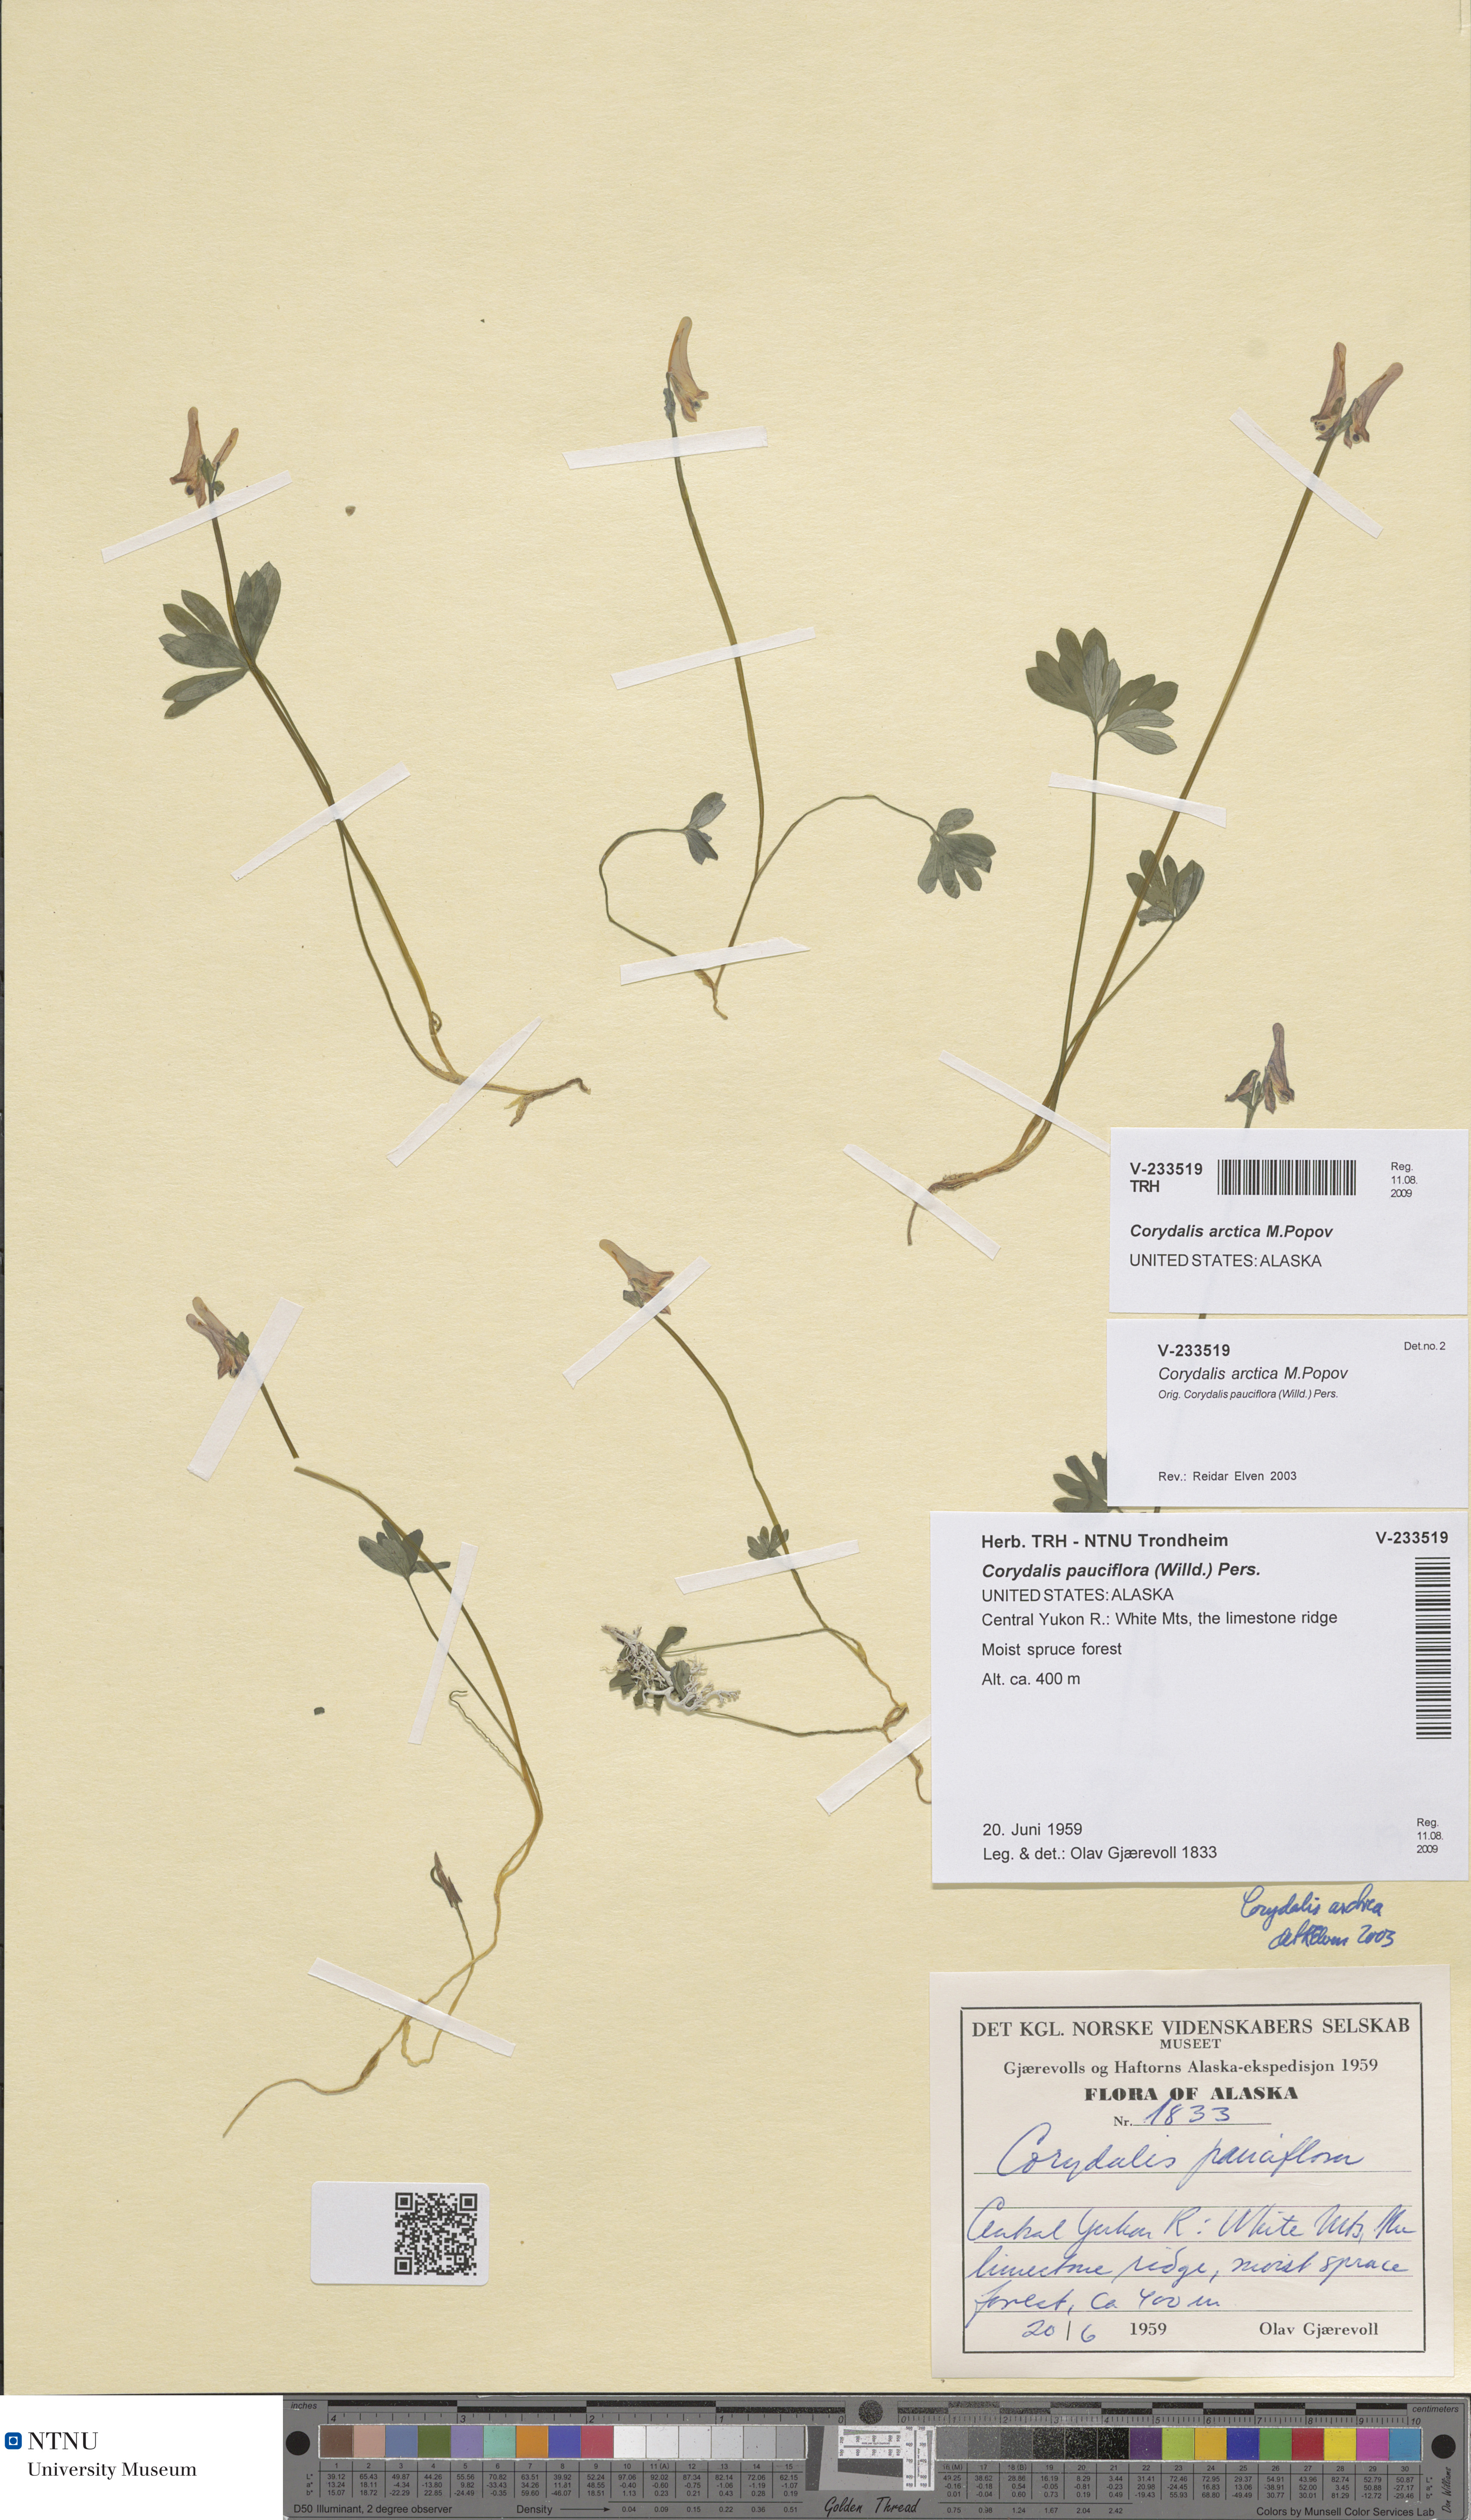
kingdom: Plantae
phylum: Tracheophyta
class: Magnoliopsida
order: Ranunculales
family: Papaveraceae
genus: Corydalis
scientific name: Corydalis arctica
